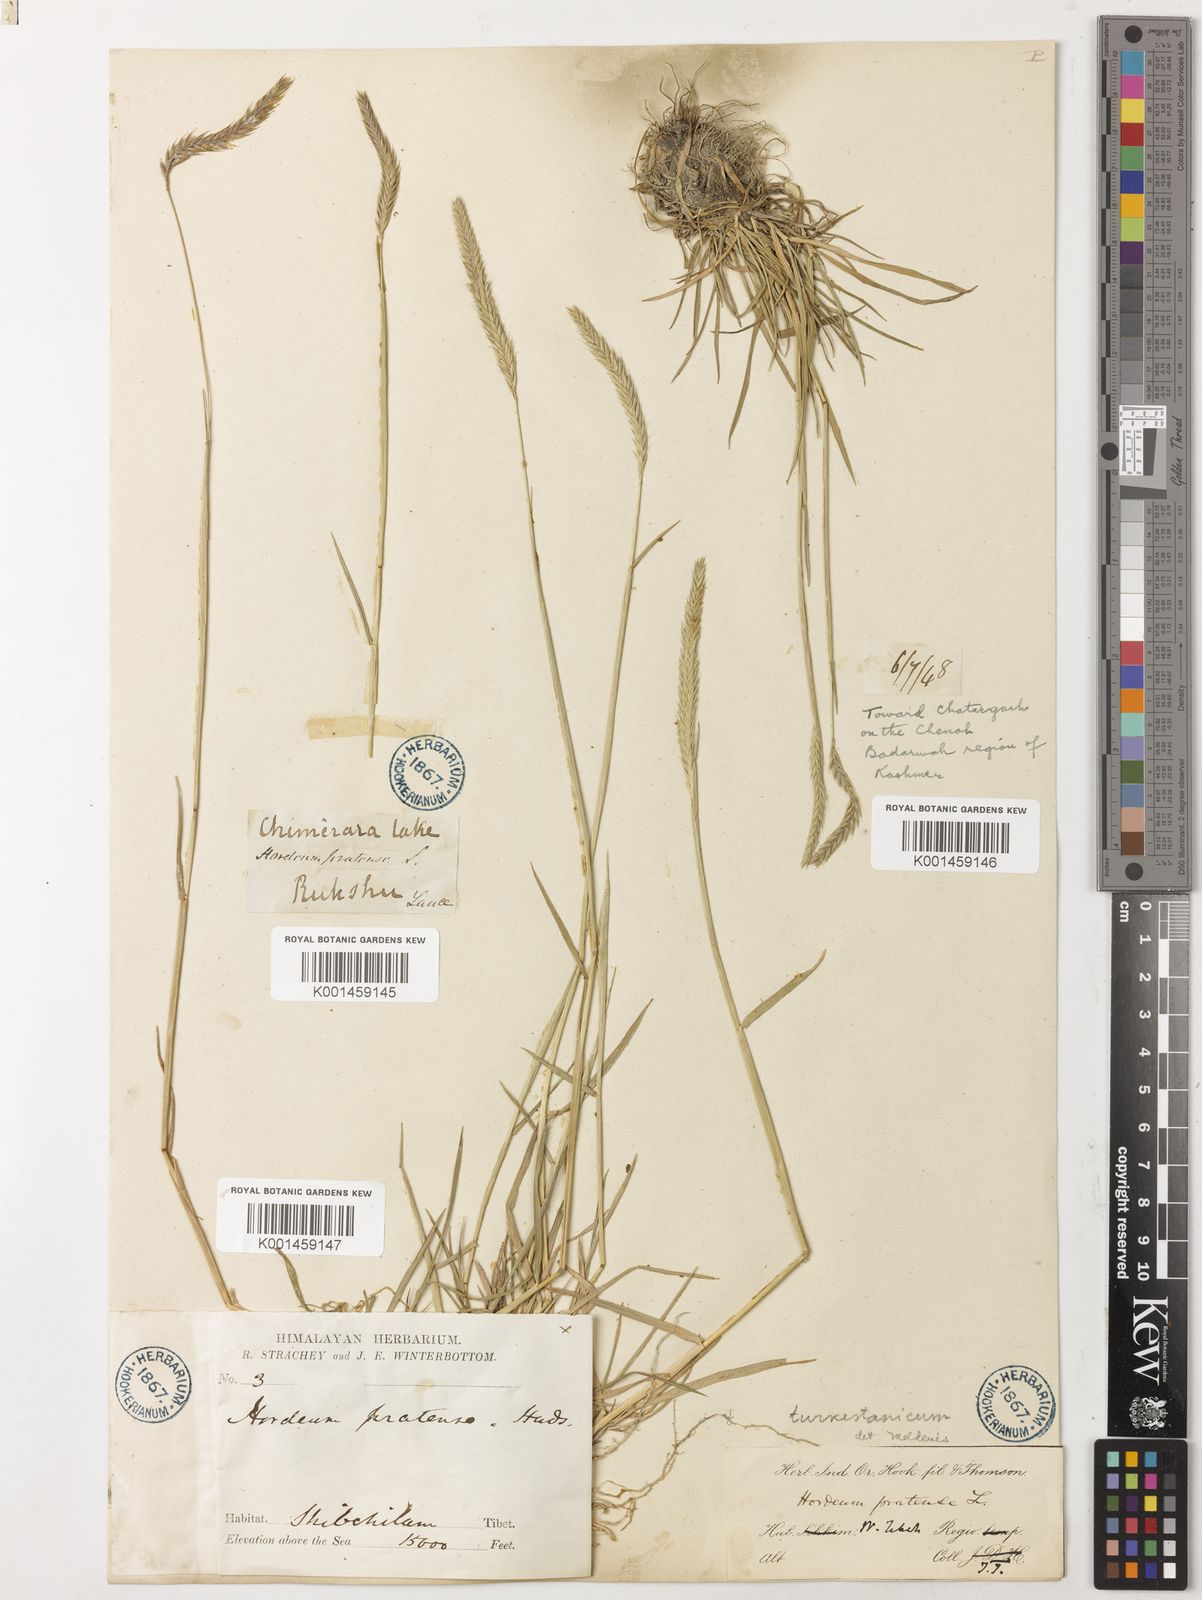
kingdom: Plantae
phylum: Tracheophyta
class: Liliopsida
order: Poales
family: Poaceae
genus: Hordeum
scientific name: Hordeum brevisubulatum
